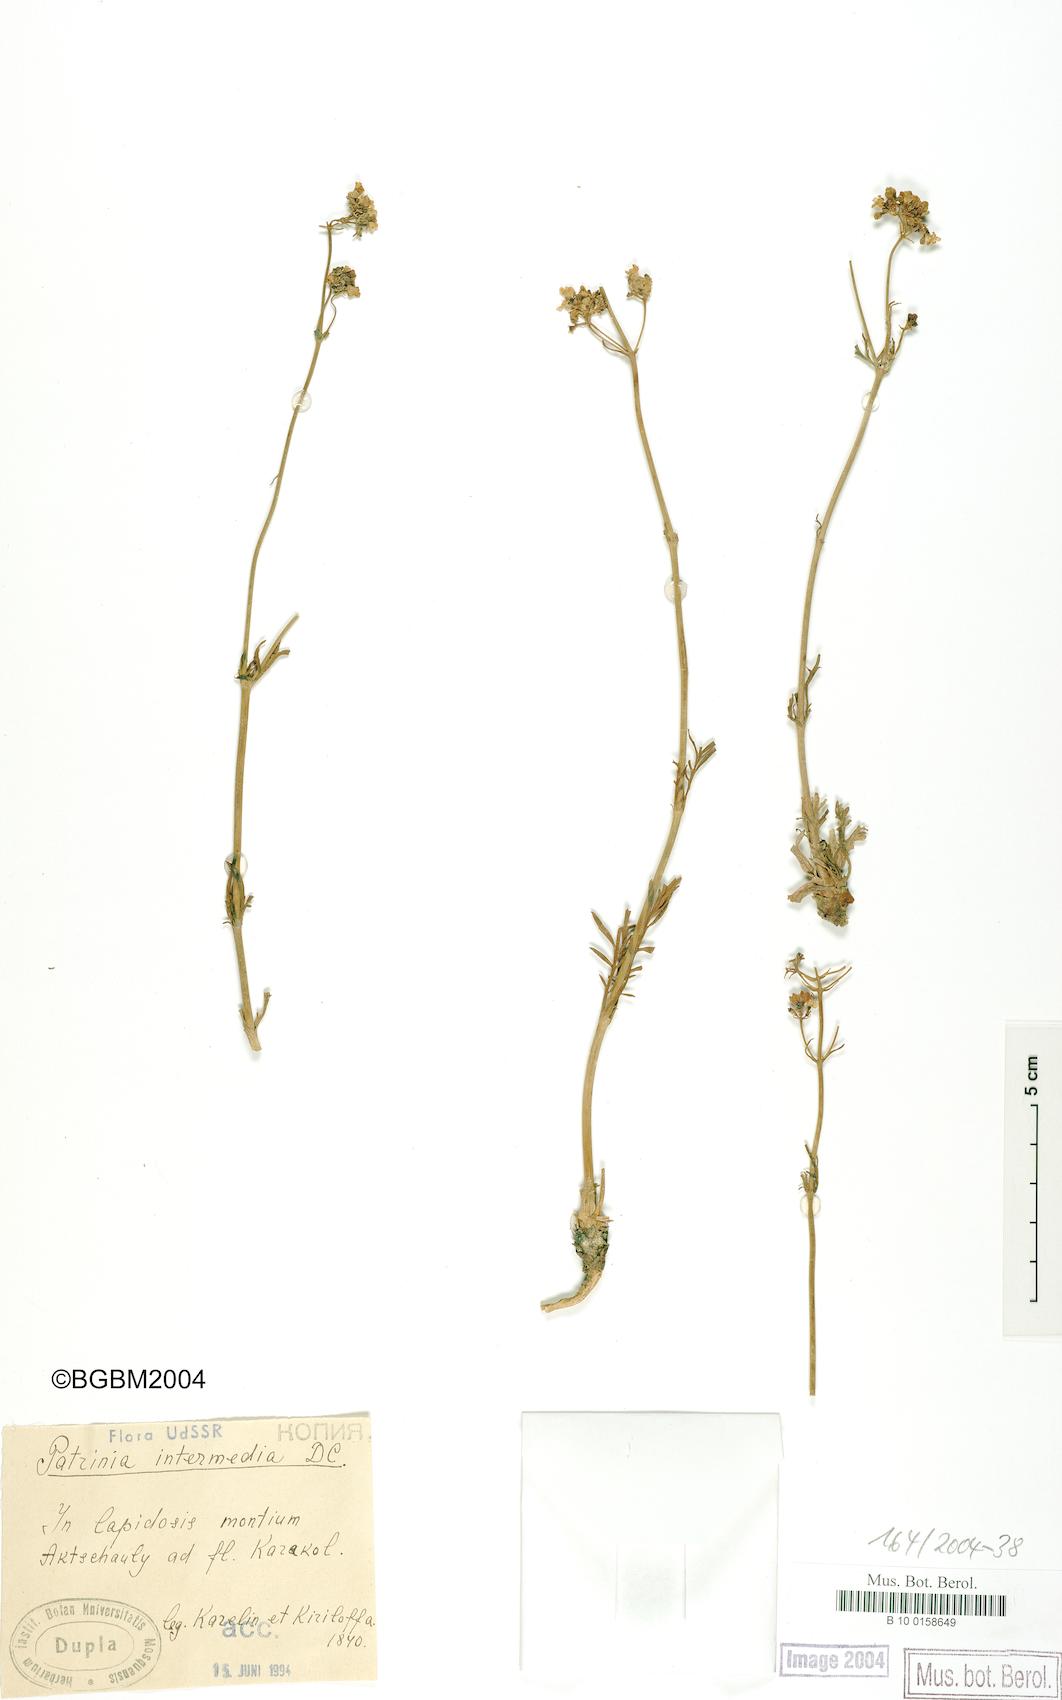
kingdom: Plantae
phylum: Tracheophyta
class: Magnoliopsida
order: Dipsacales
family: Caprifoliaceae
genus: Patrinia
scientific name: Patrinia intermedia
